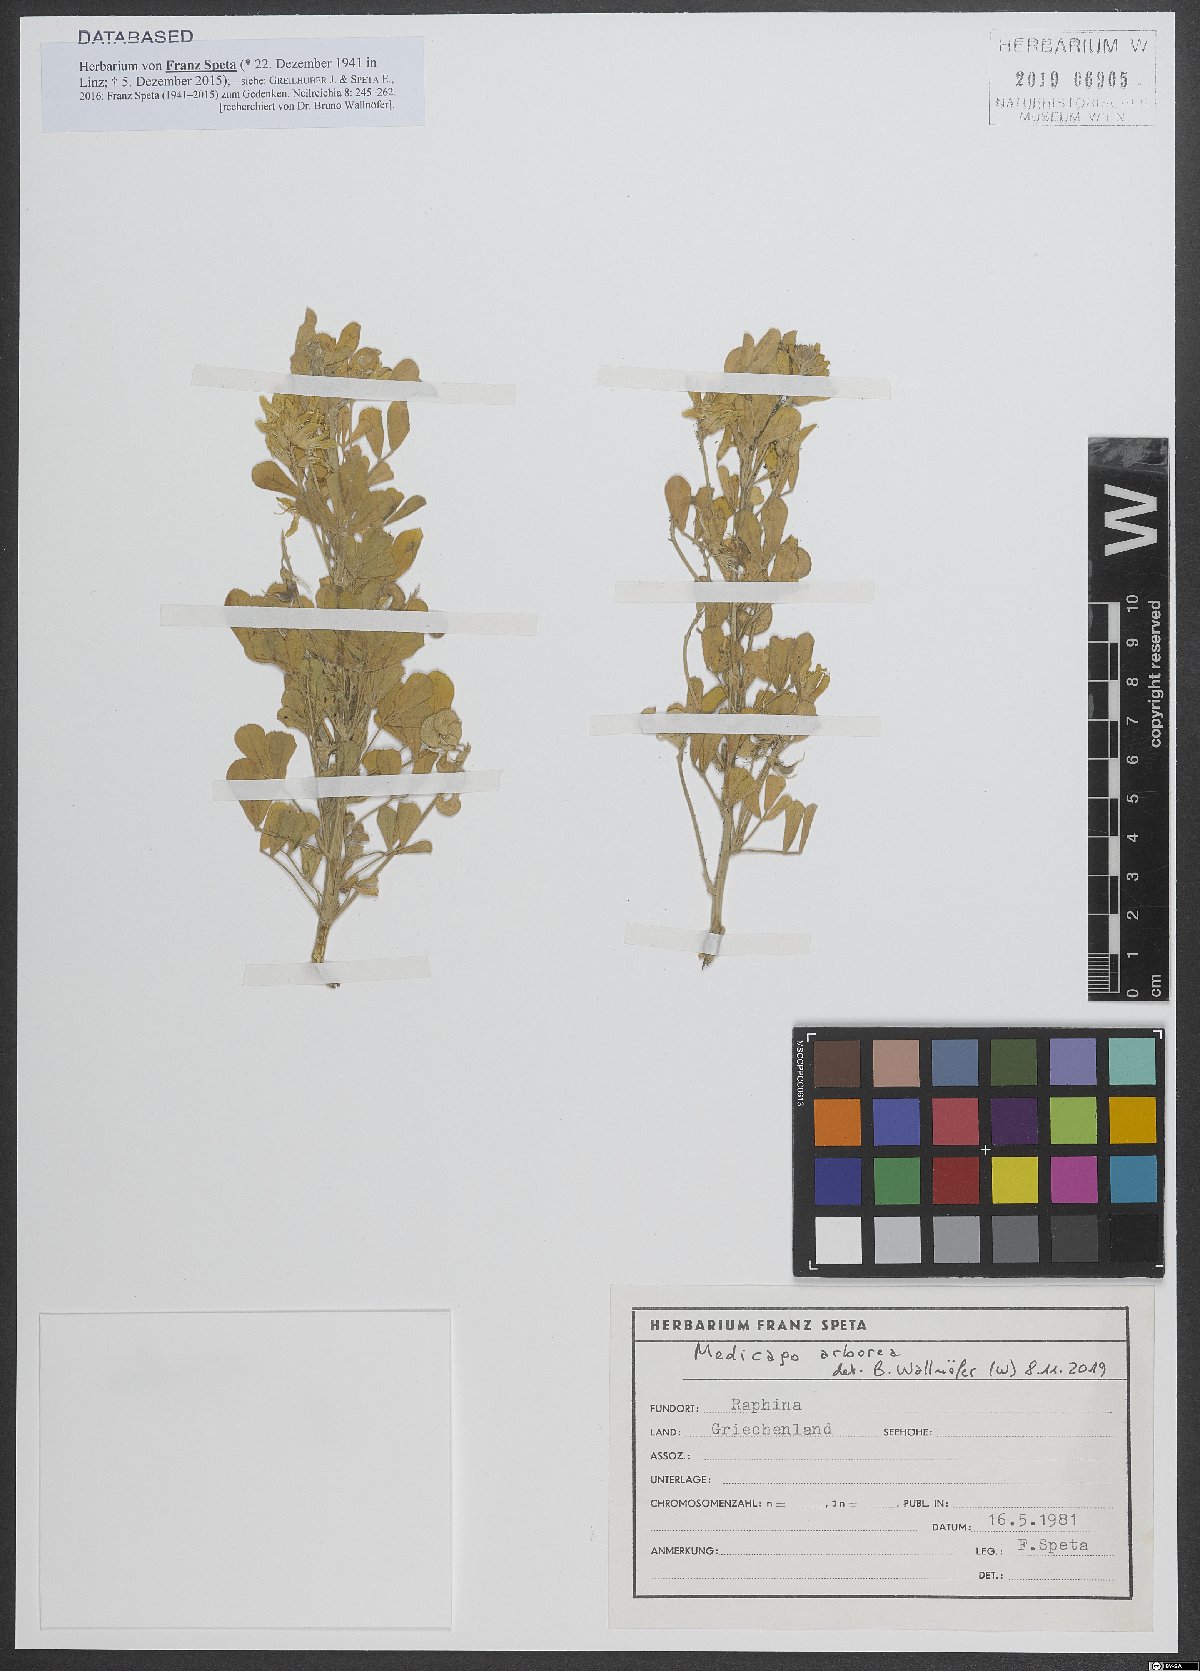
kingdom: Plantae
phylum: Tracheophyta
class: Magnoliopsida
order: Fabales
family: Fabaceae
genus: Medicago
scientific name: Medicago arborea
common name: Moon trefoil
